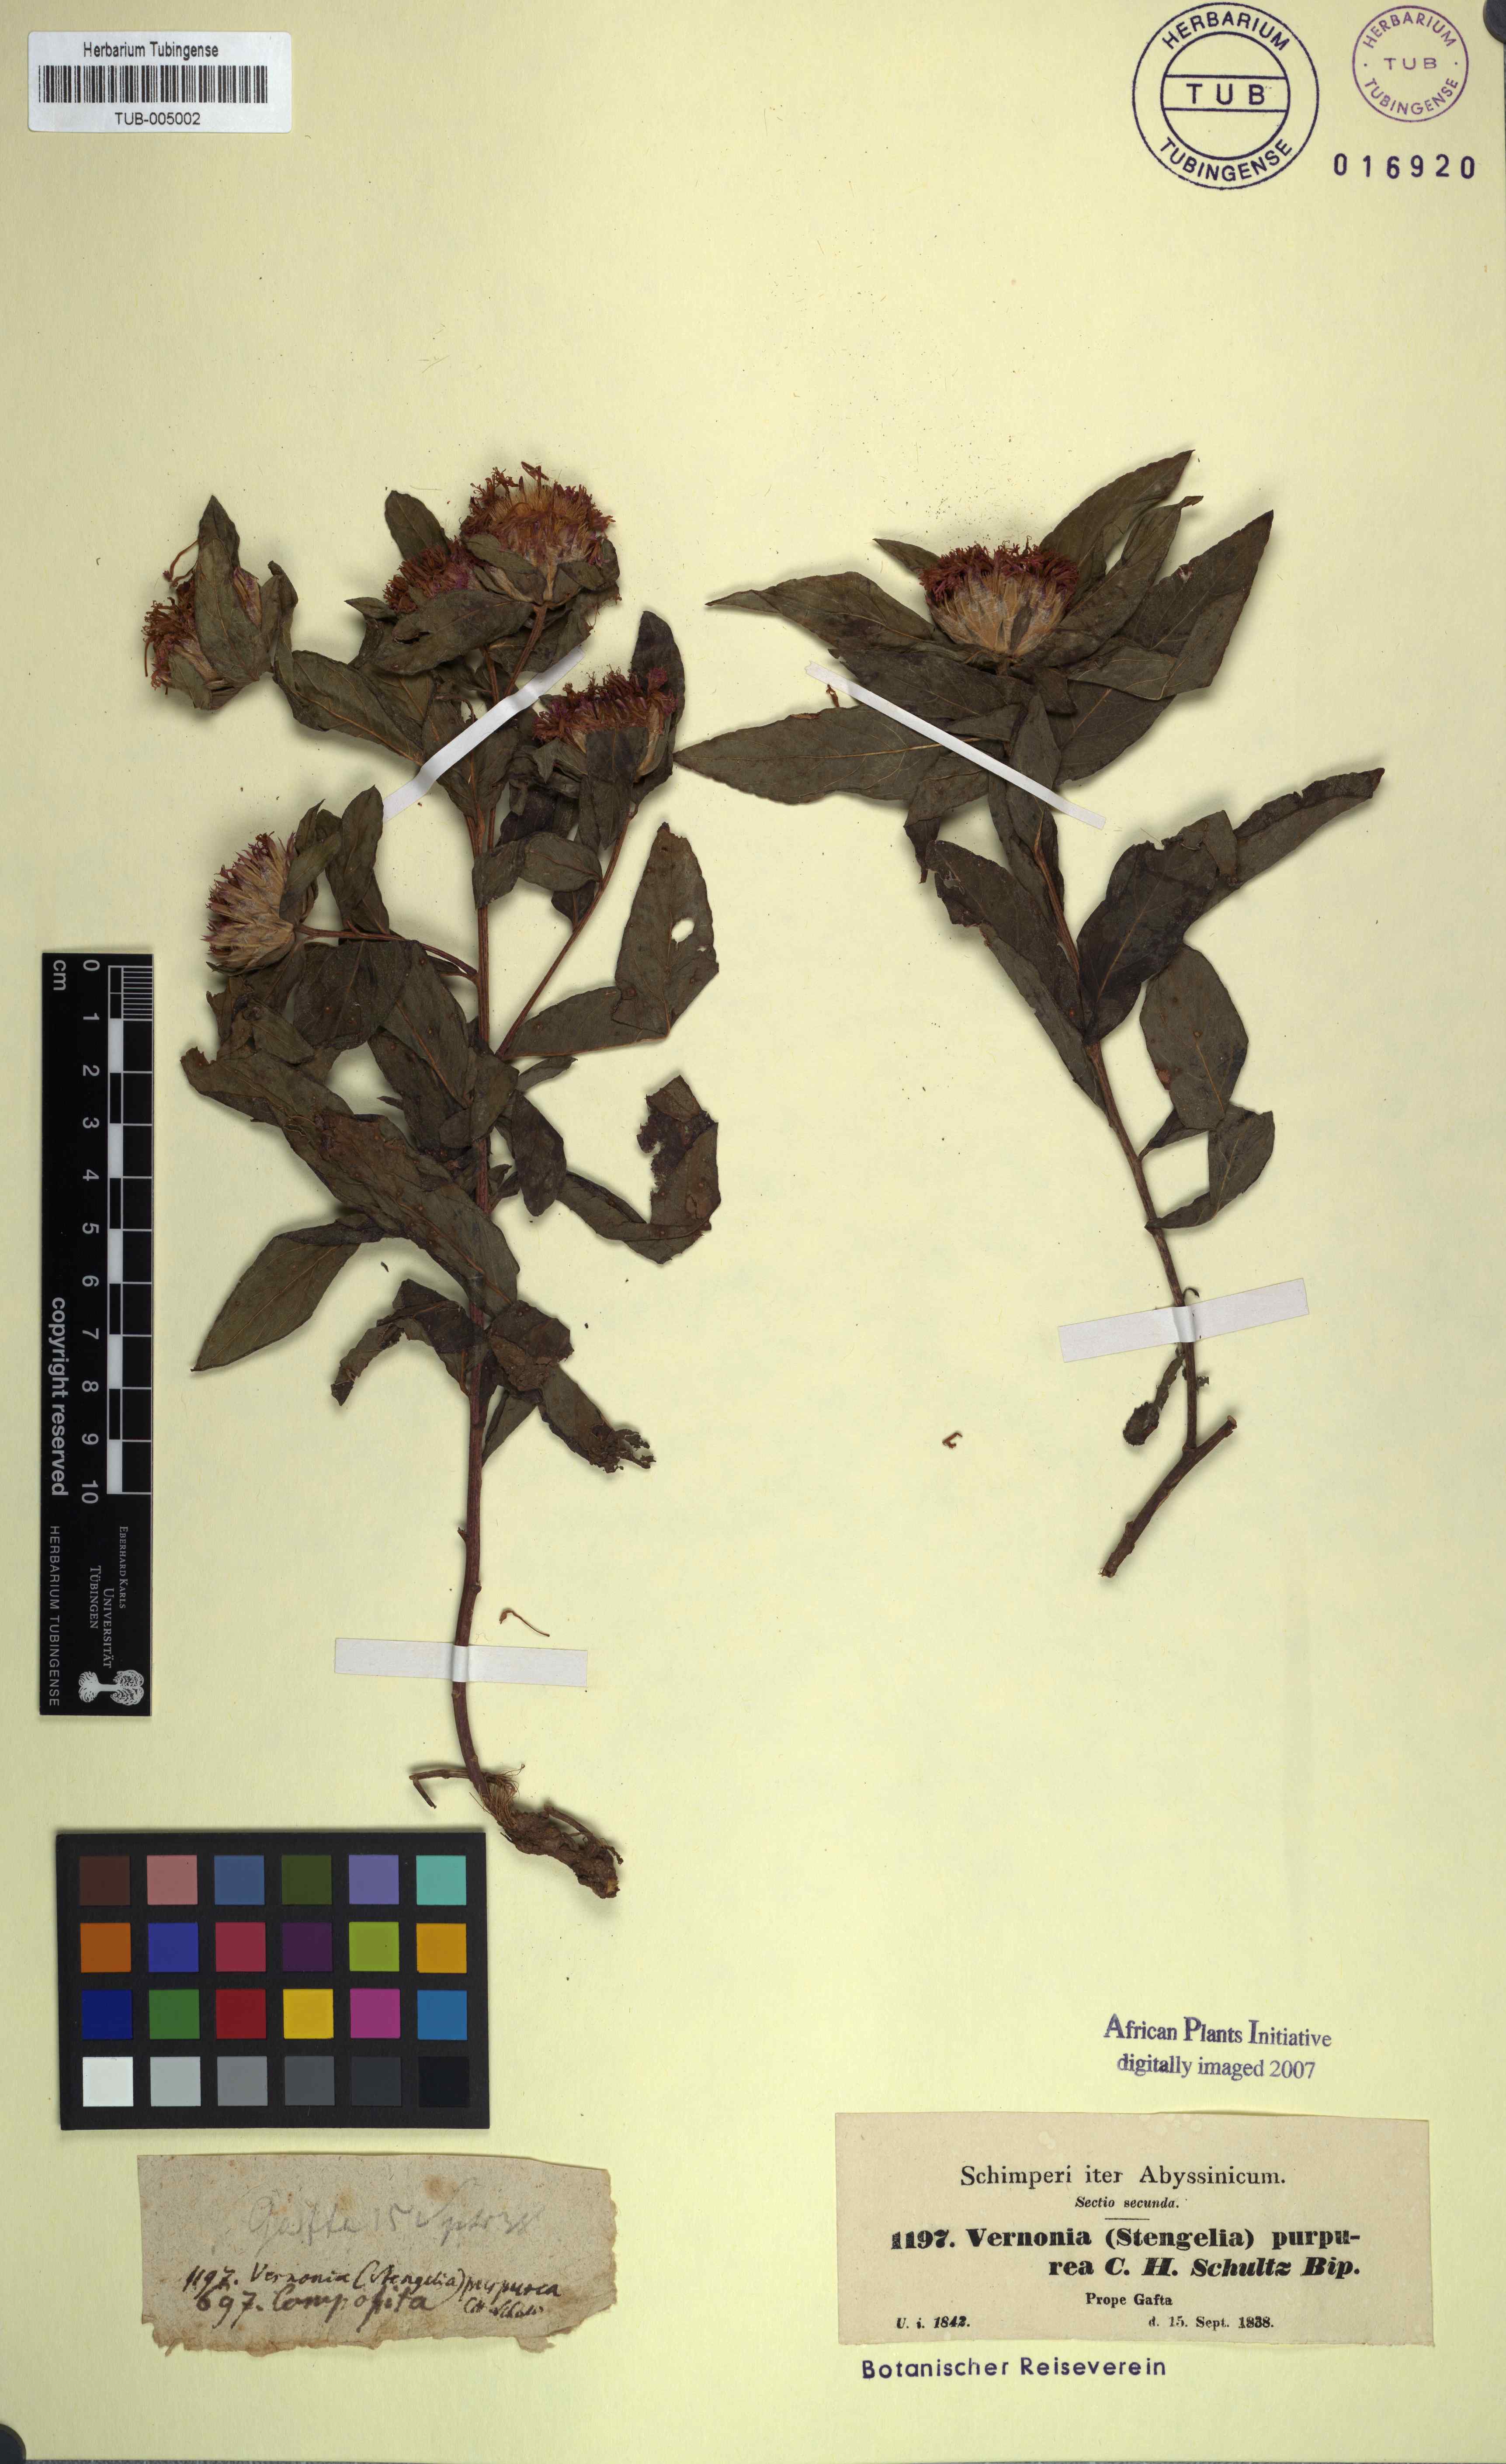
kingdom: Plantae
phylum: Tracheophyta
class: Magnoliopsida
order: Asterales
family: Asteraceae
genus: Nothovernonia
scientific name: Nothovernonia purpurea
